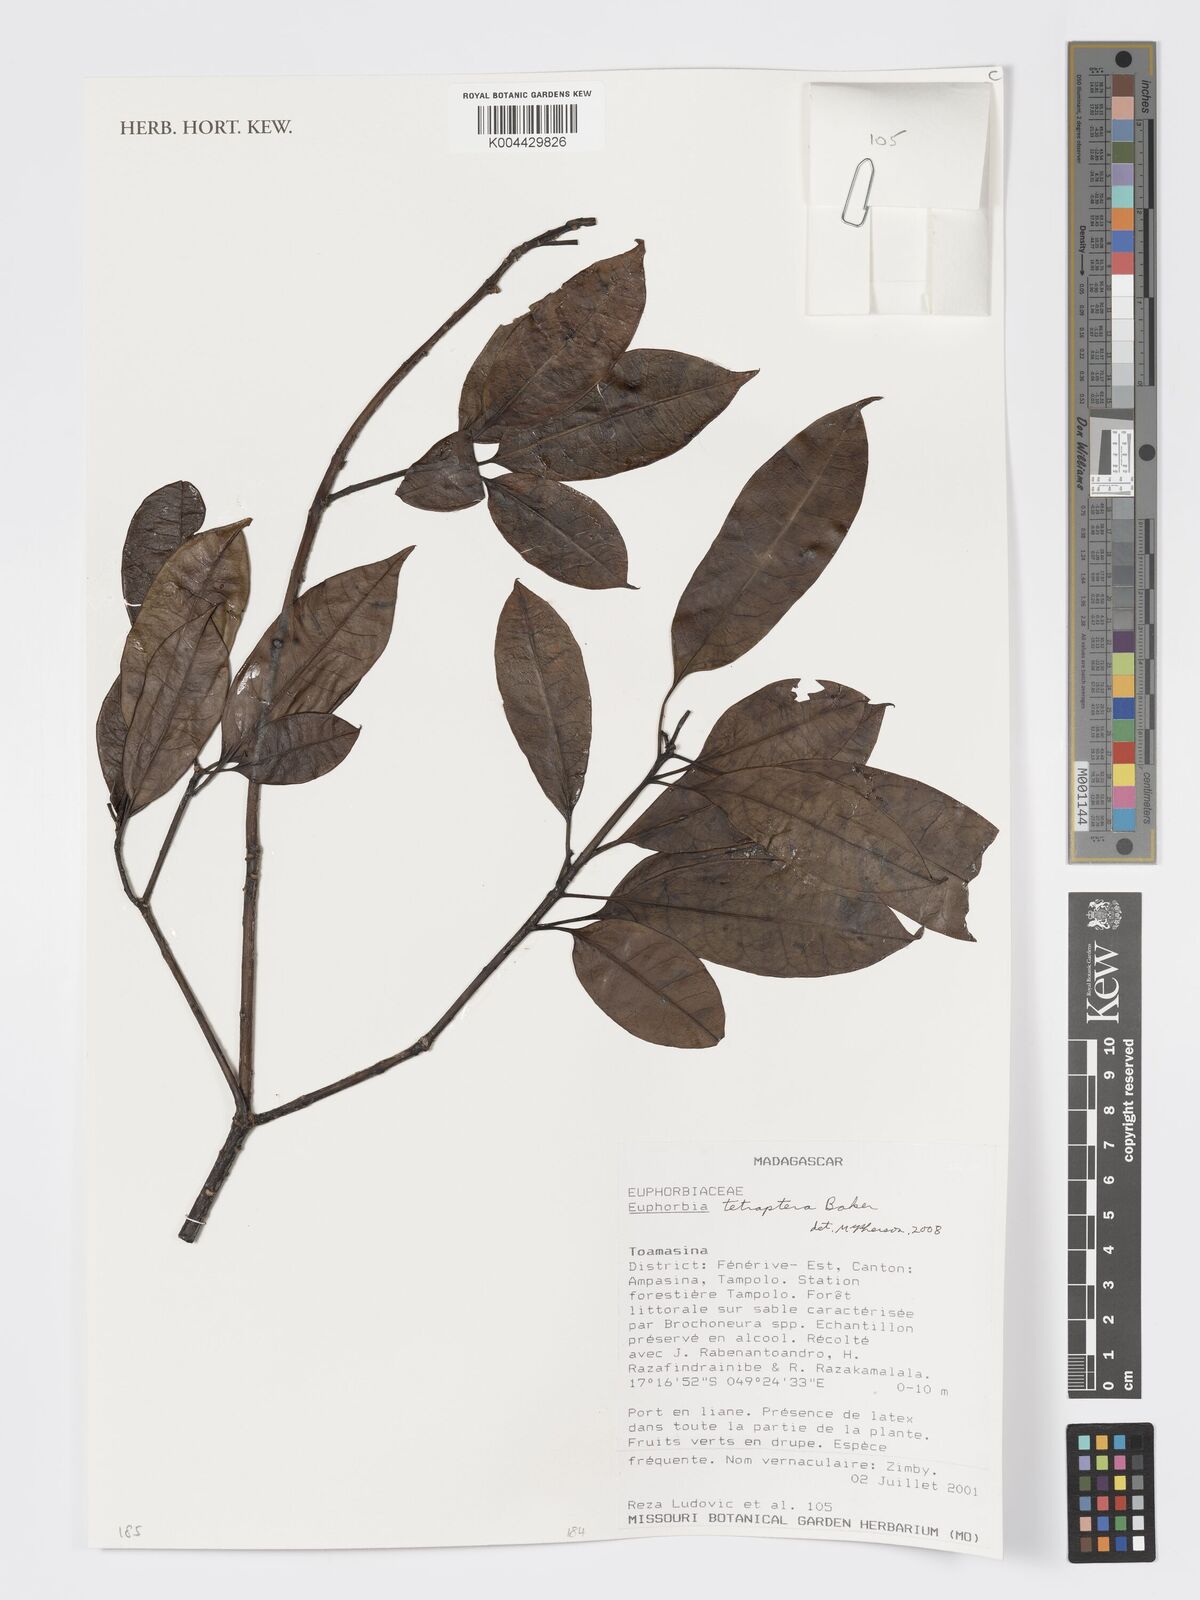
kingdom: Plantae
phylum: Tracheophyta
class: Magnoliopsida
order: Malpighiales
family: Euphorbiaceae
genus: Euphorbia
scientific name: Euphorbia tetraptera
